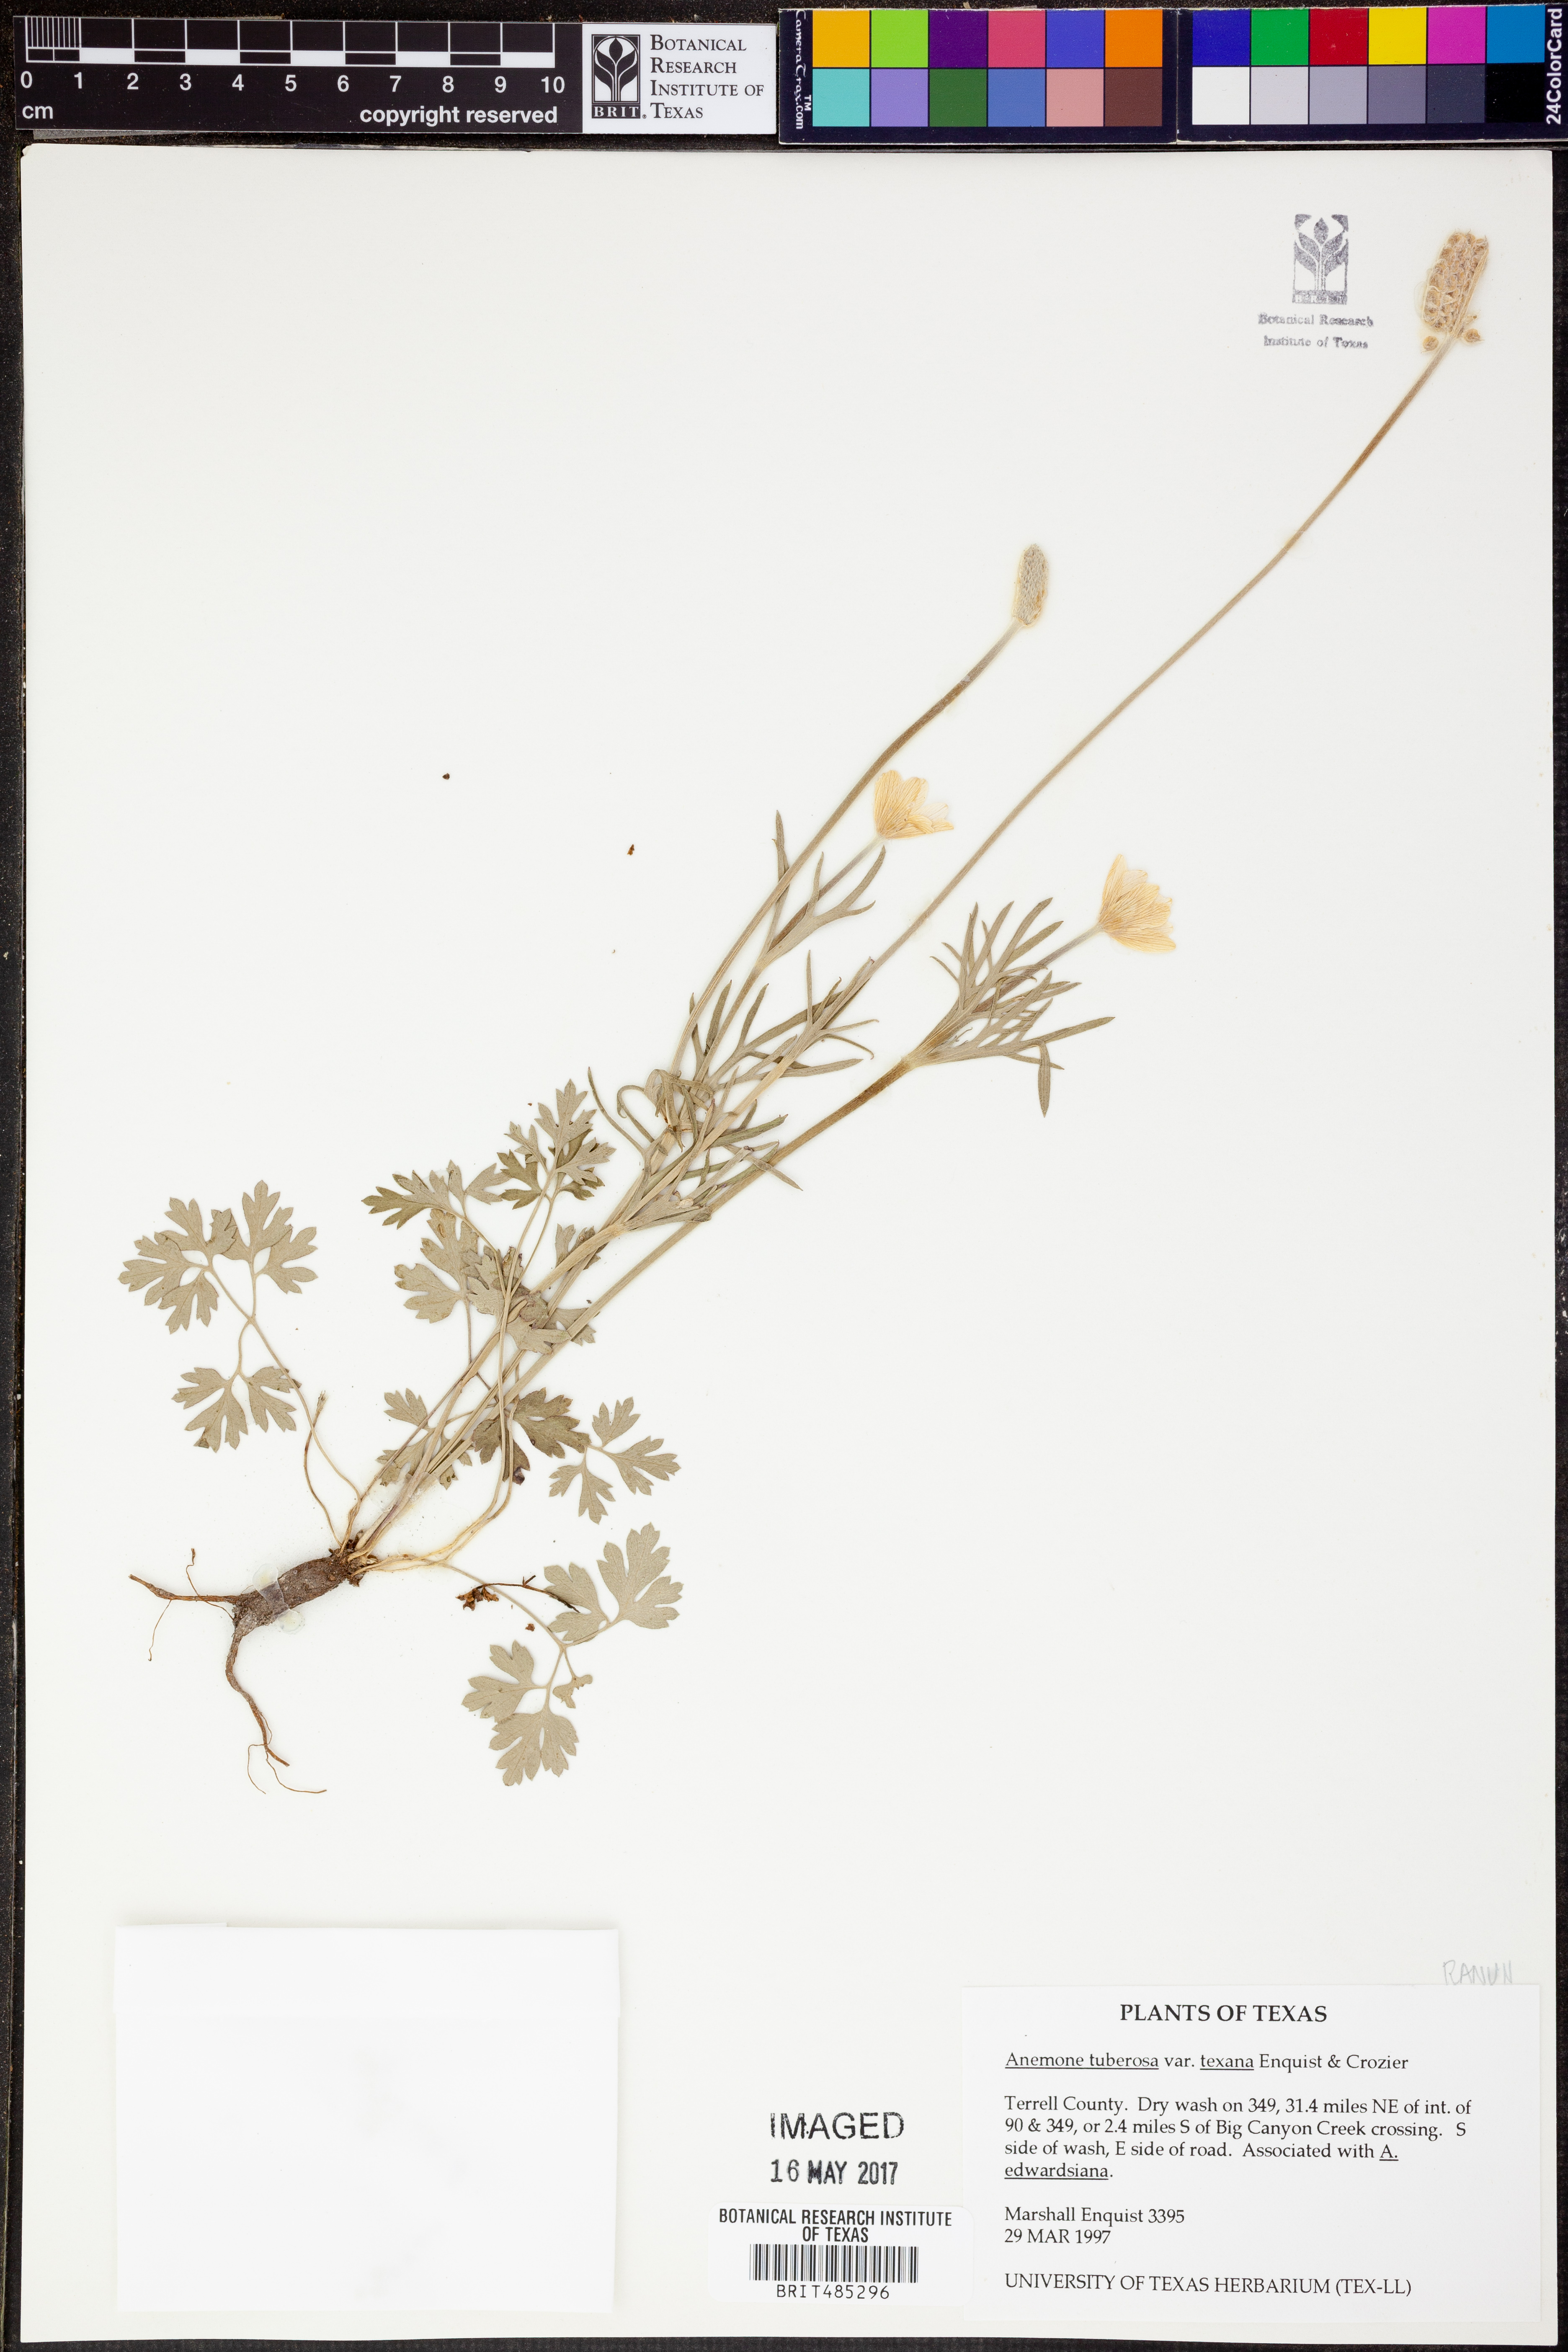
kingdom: Plantae
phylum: Tracheophyta
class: Magnoliopsida
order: Ranunculales
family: Ranunculaceae
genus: Anemone
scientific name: Anemone tuberosa
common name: Desert anemone
